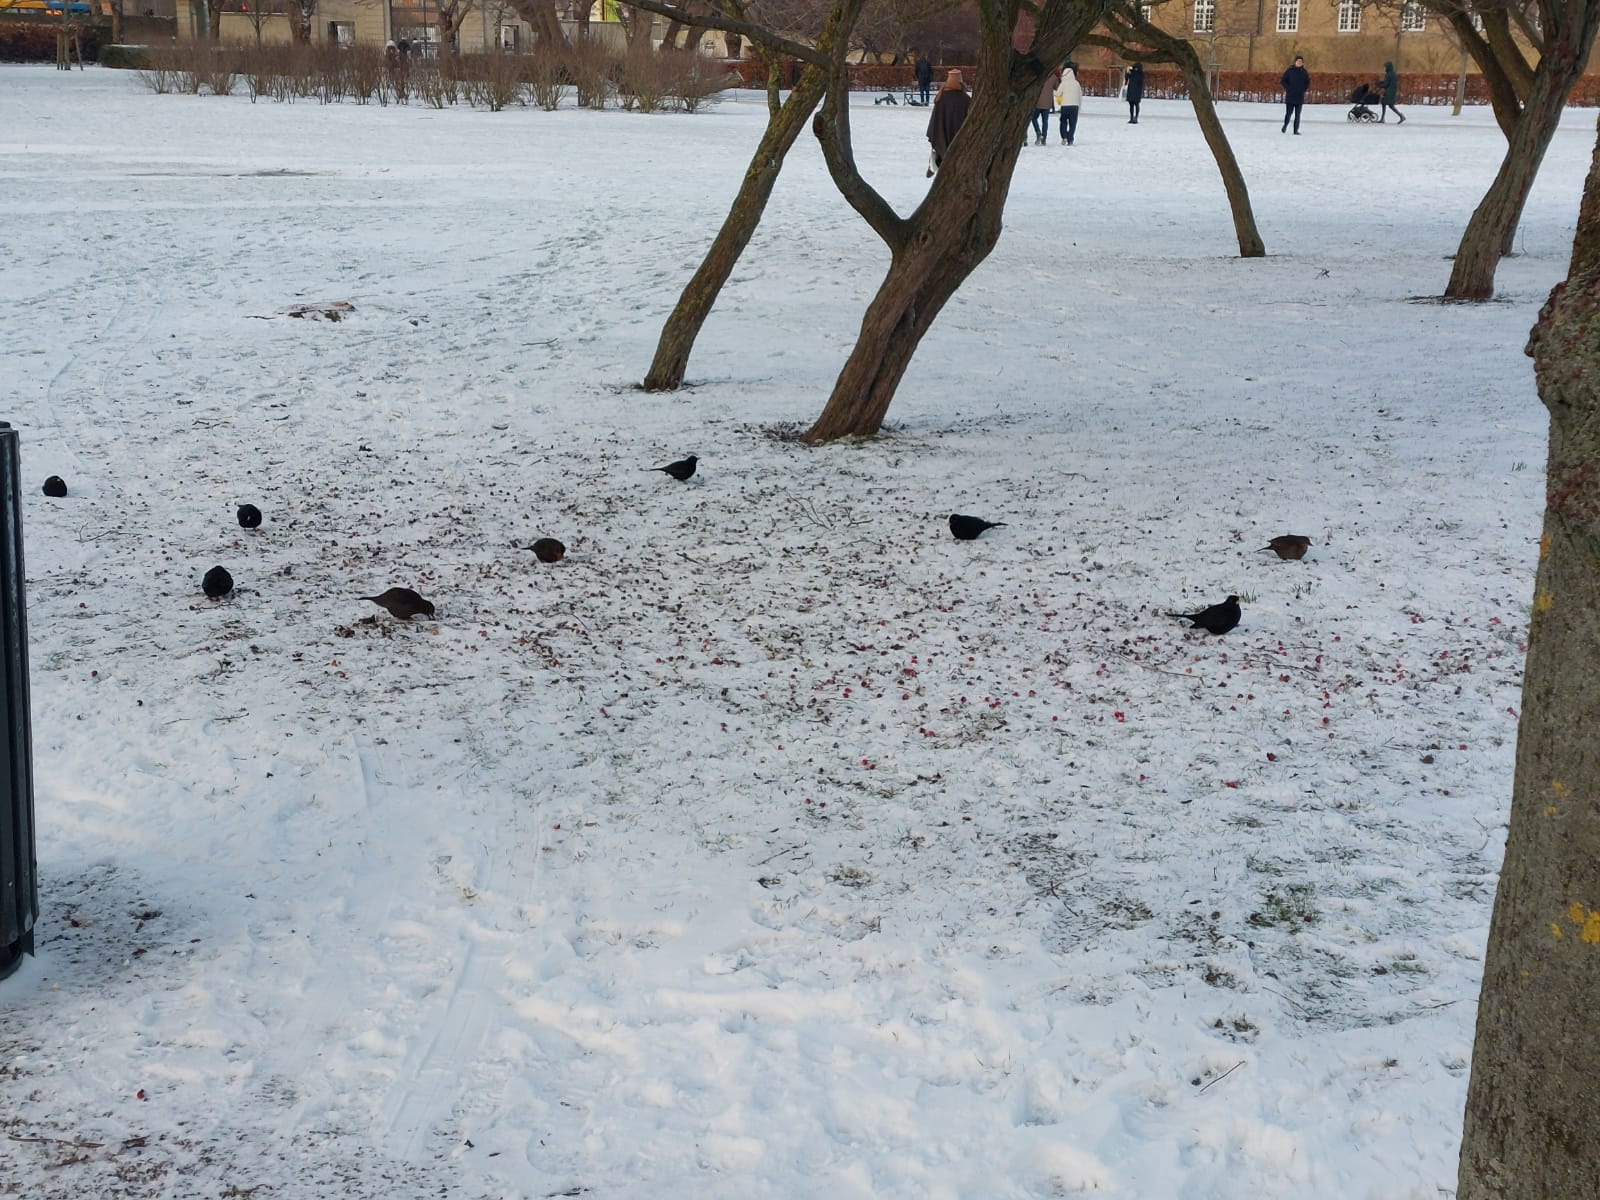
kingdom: Animalia
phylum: Chordata
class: Aves
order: Passeriformes
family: Turdidae
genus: Turdus
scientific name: Turdus merula
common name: Solsort
